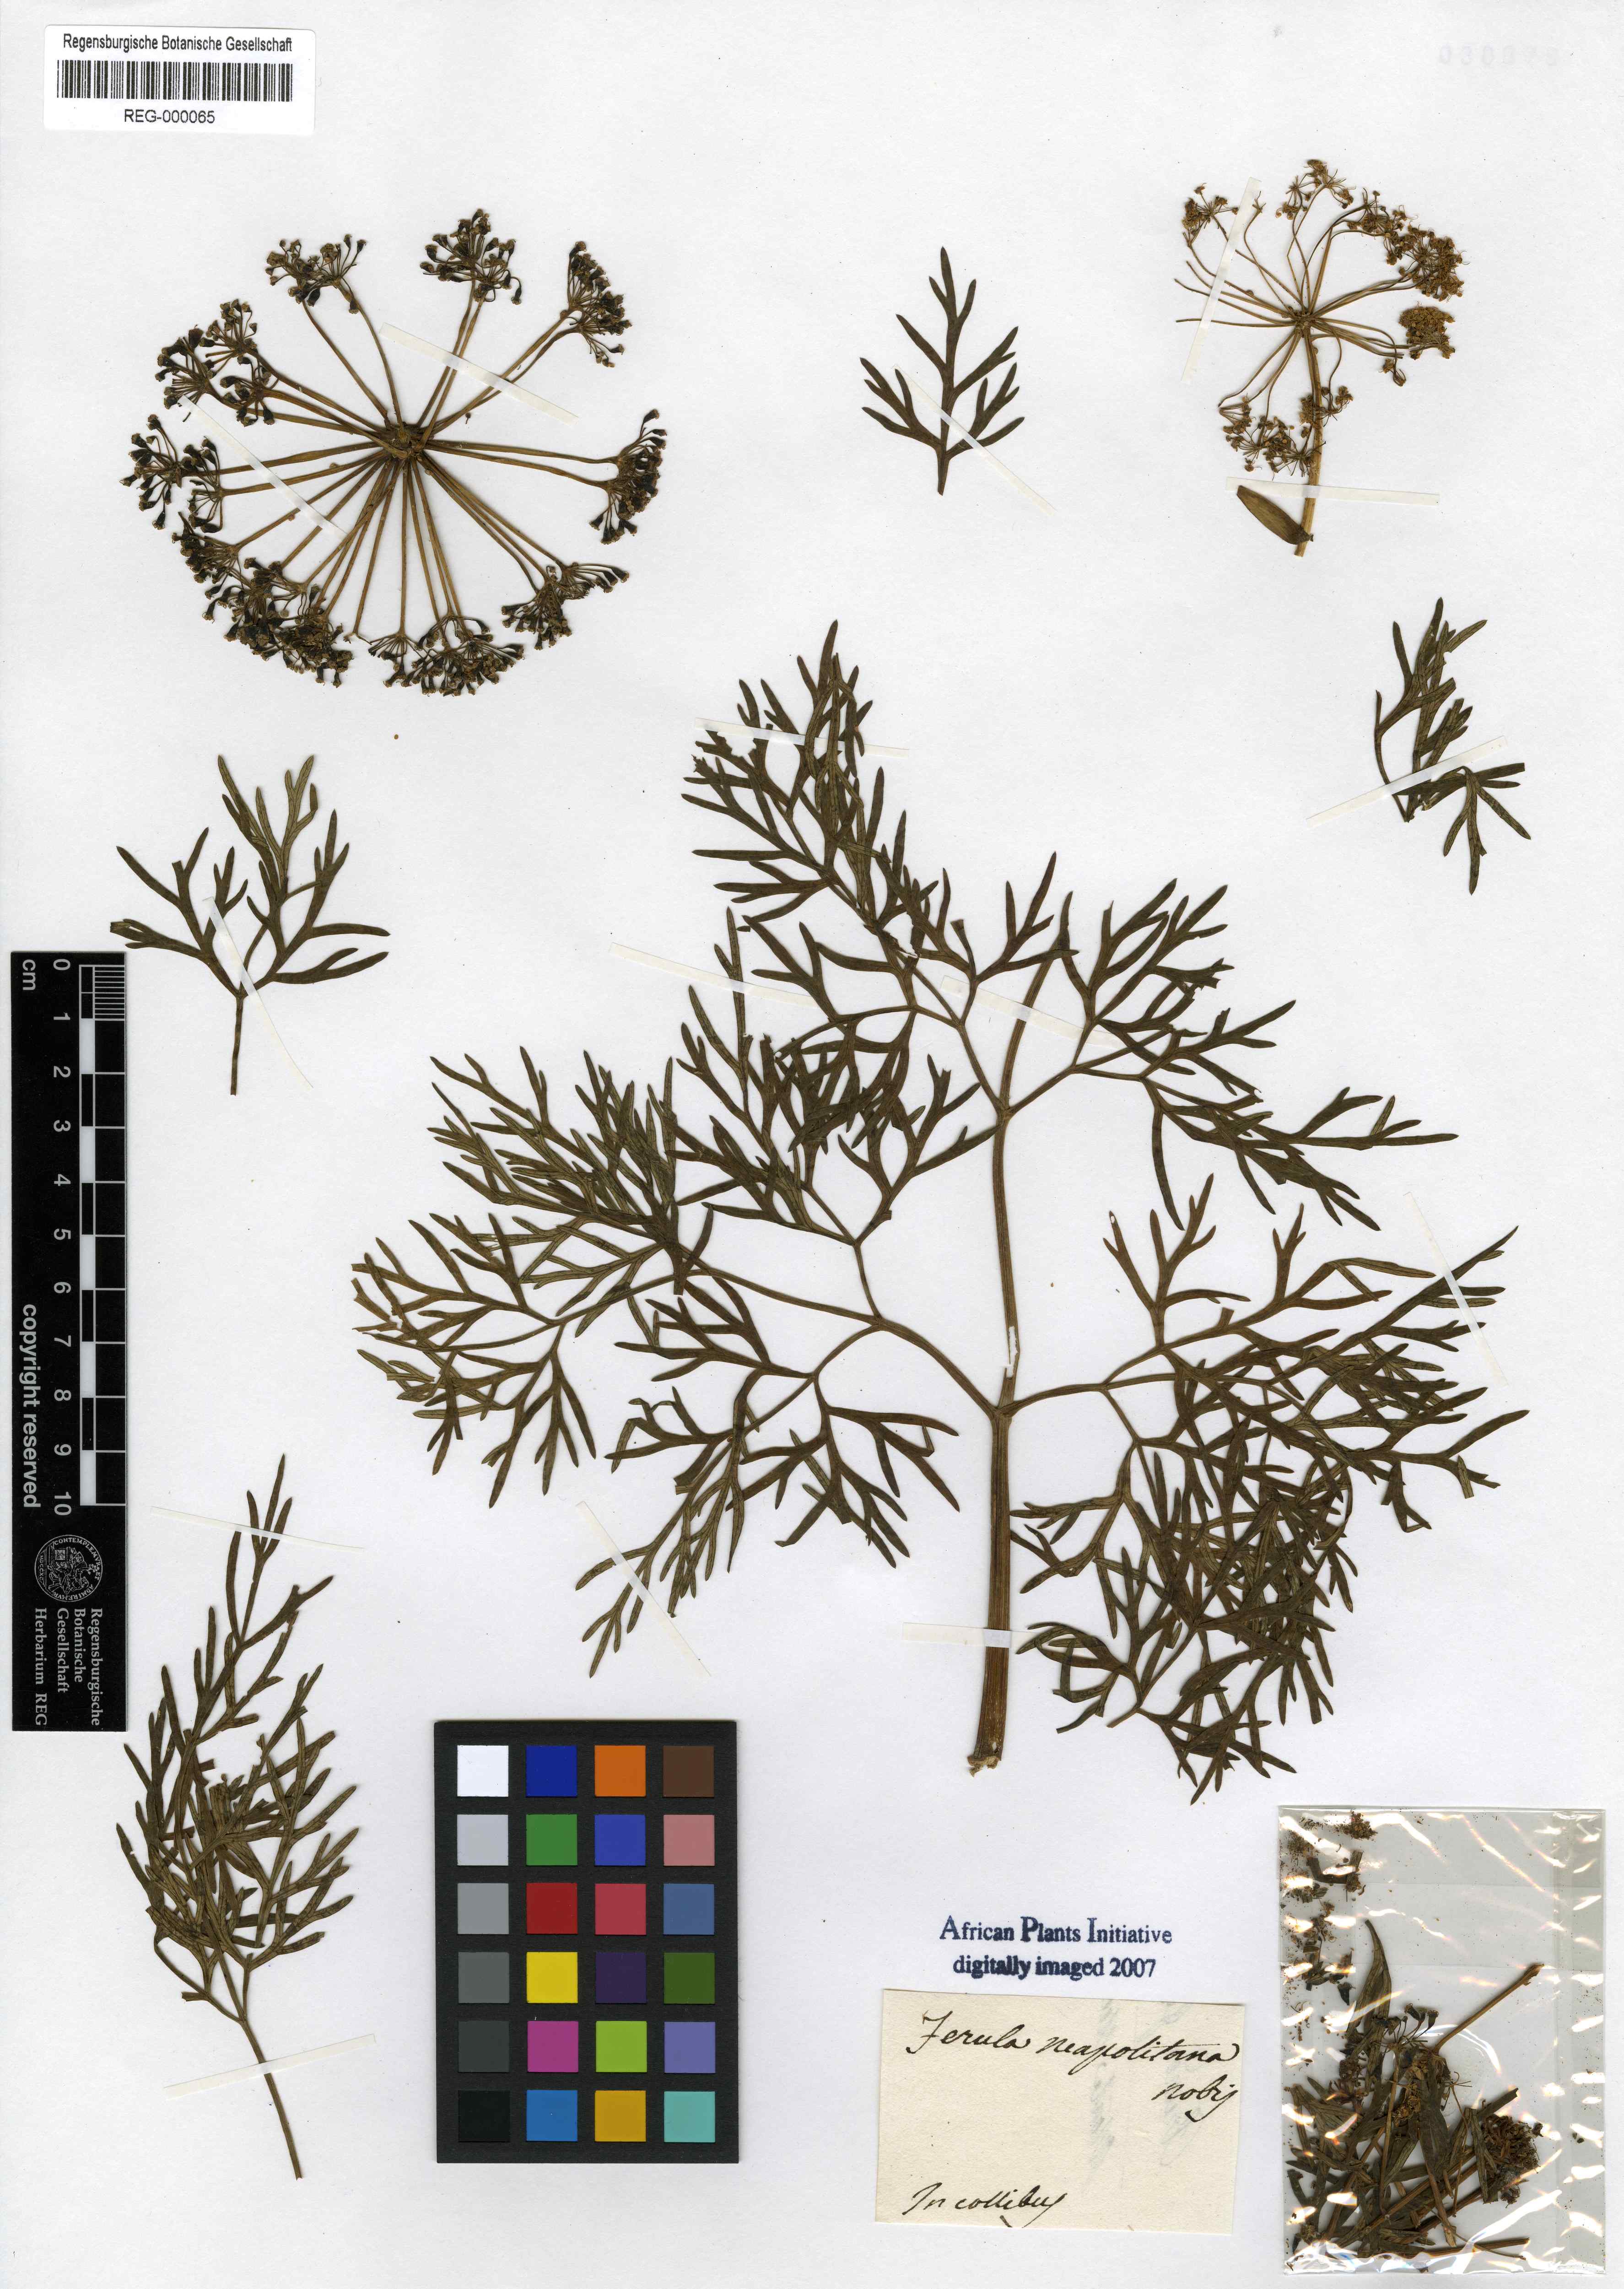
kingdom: Plantae
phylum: Tracheophyta
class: Magnoliopsida
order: Apiales
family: Apiaceae
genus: Ferula
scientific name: Ferula glauca
